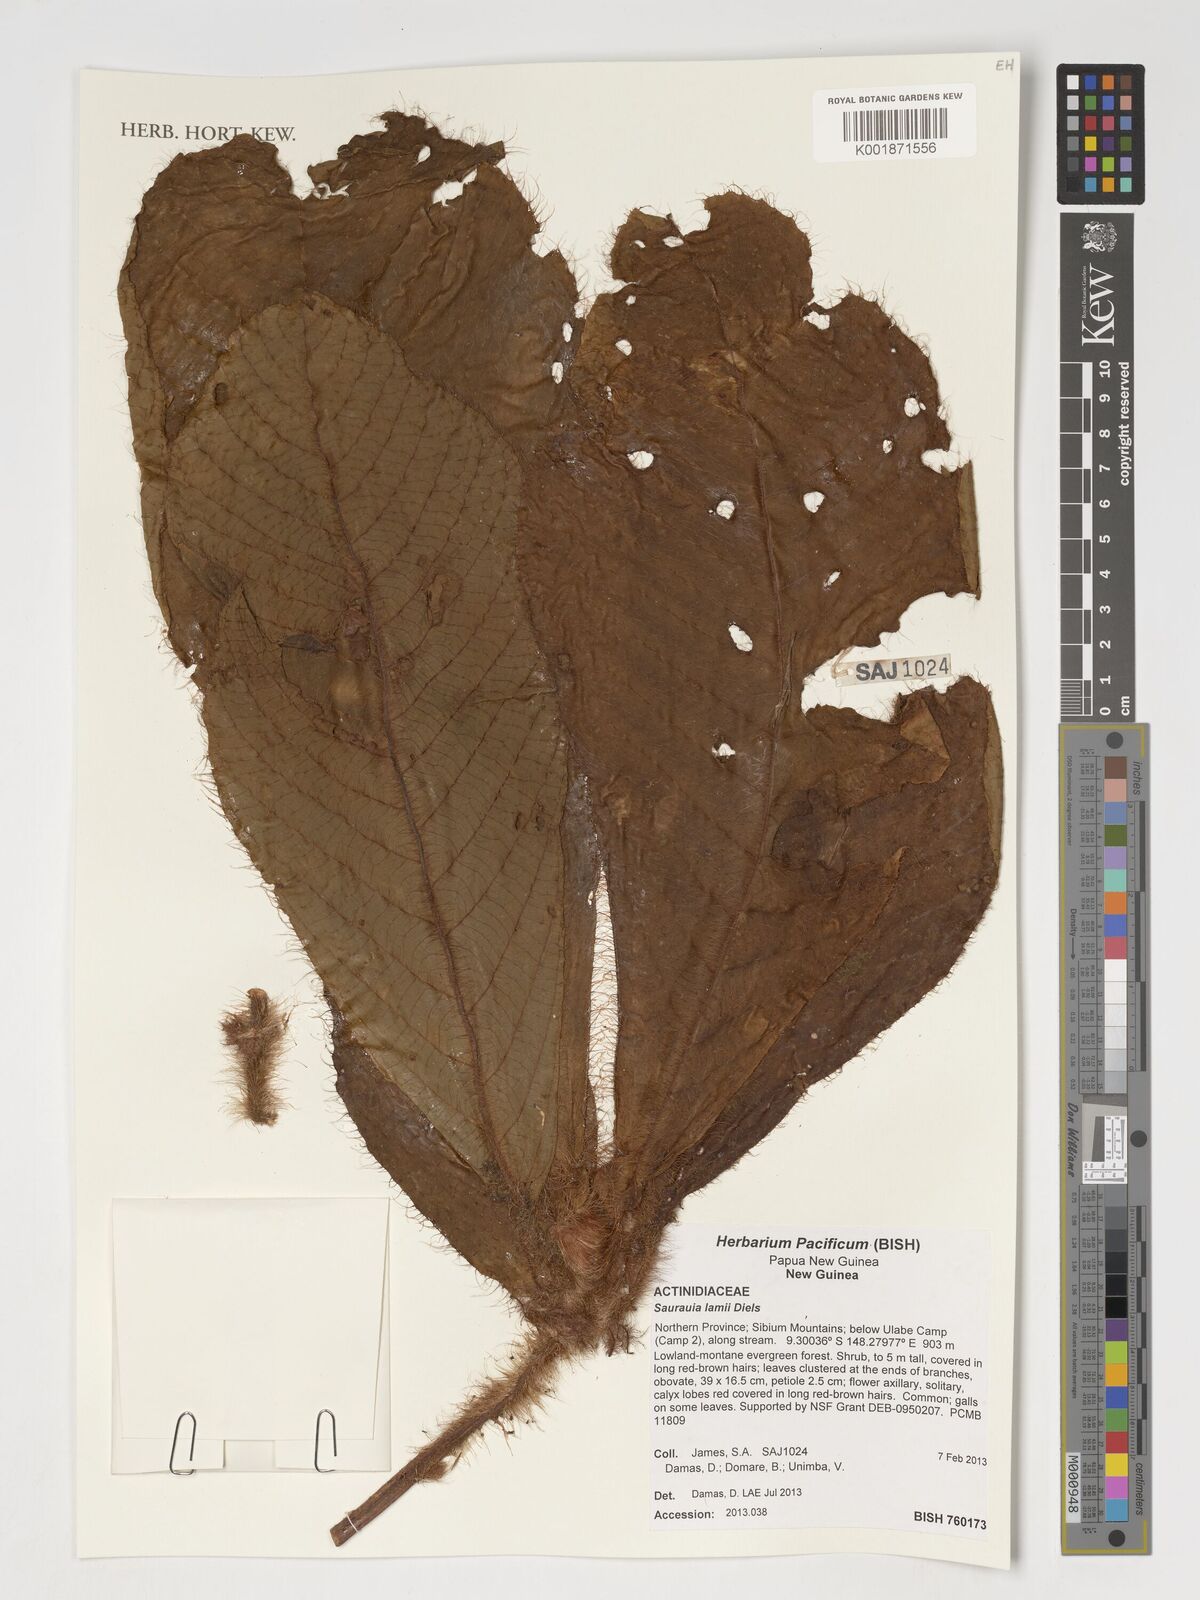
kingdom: Plantae
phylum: Tracheophyta
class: Magnoliopsida
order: Ericales
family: Actinidiaceae
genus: Saurauia
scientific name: Saurauia
